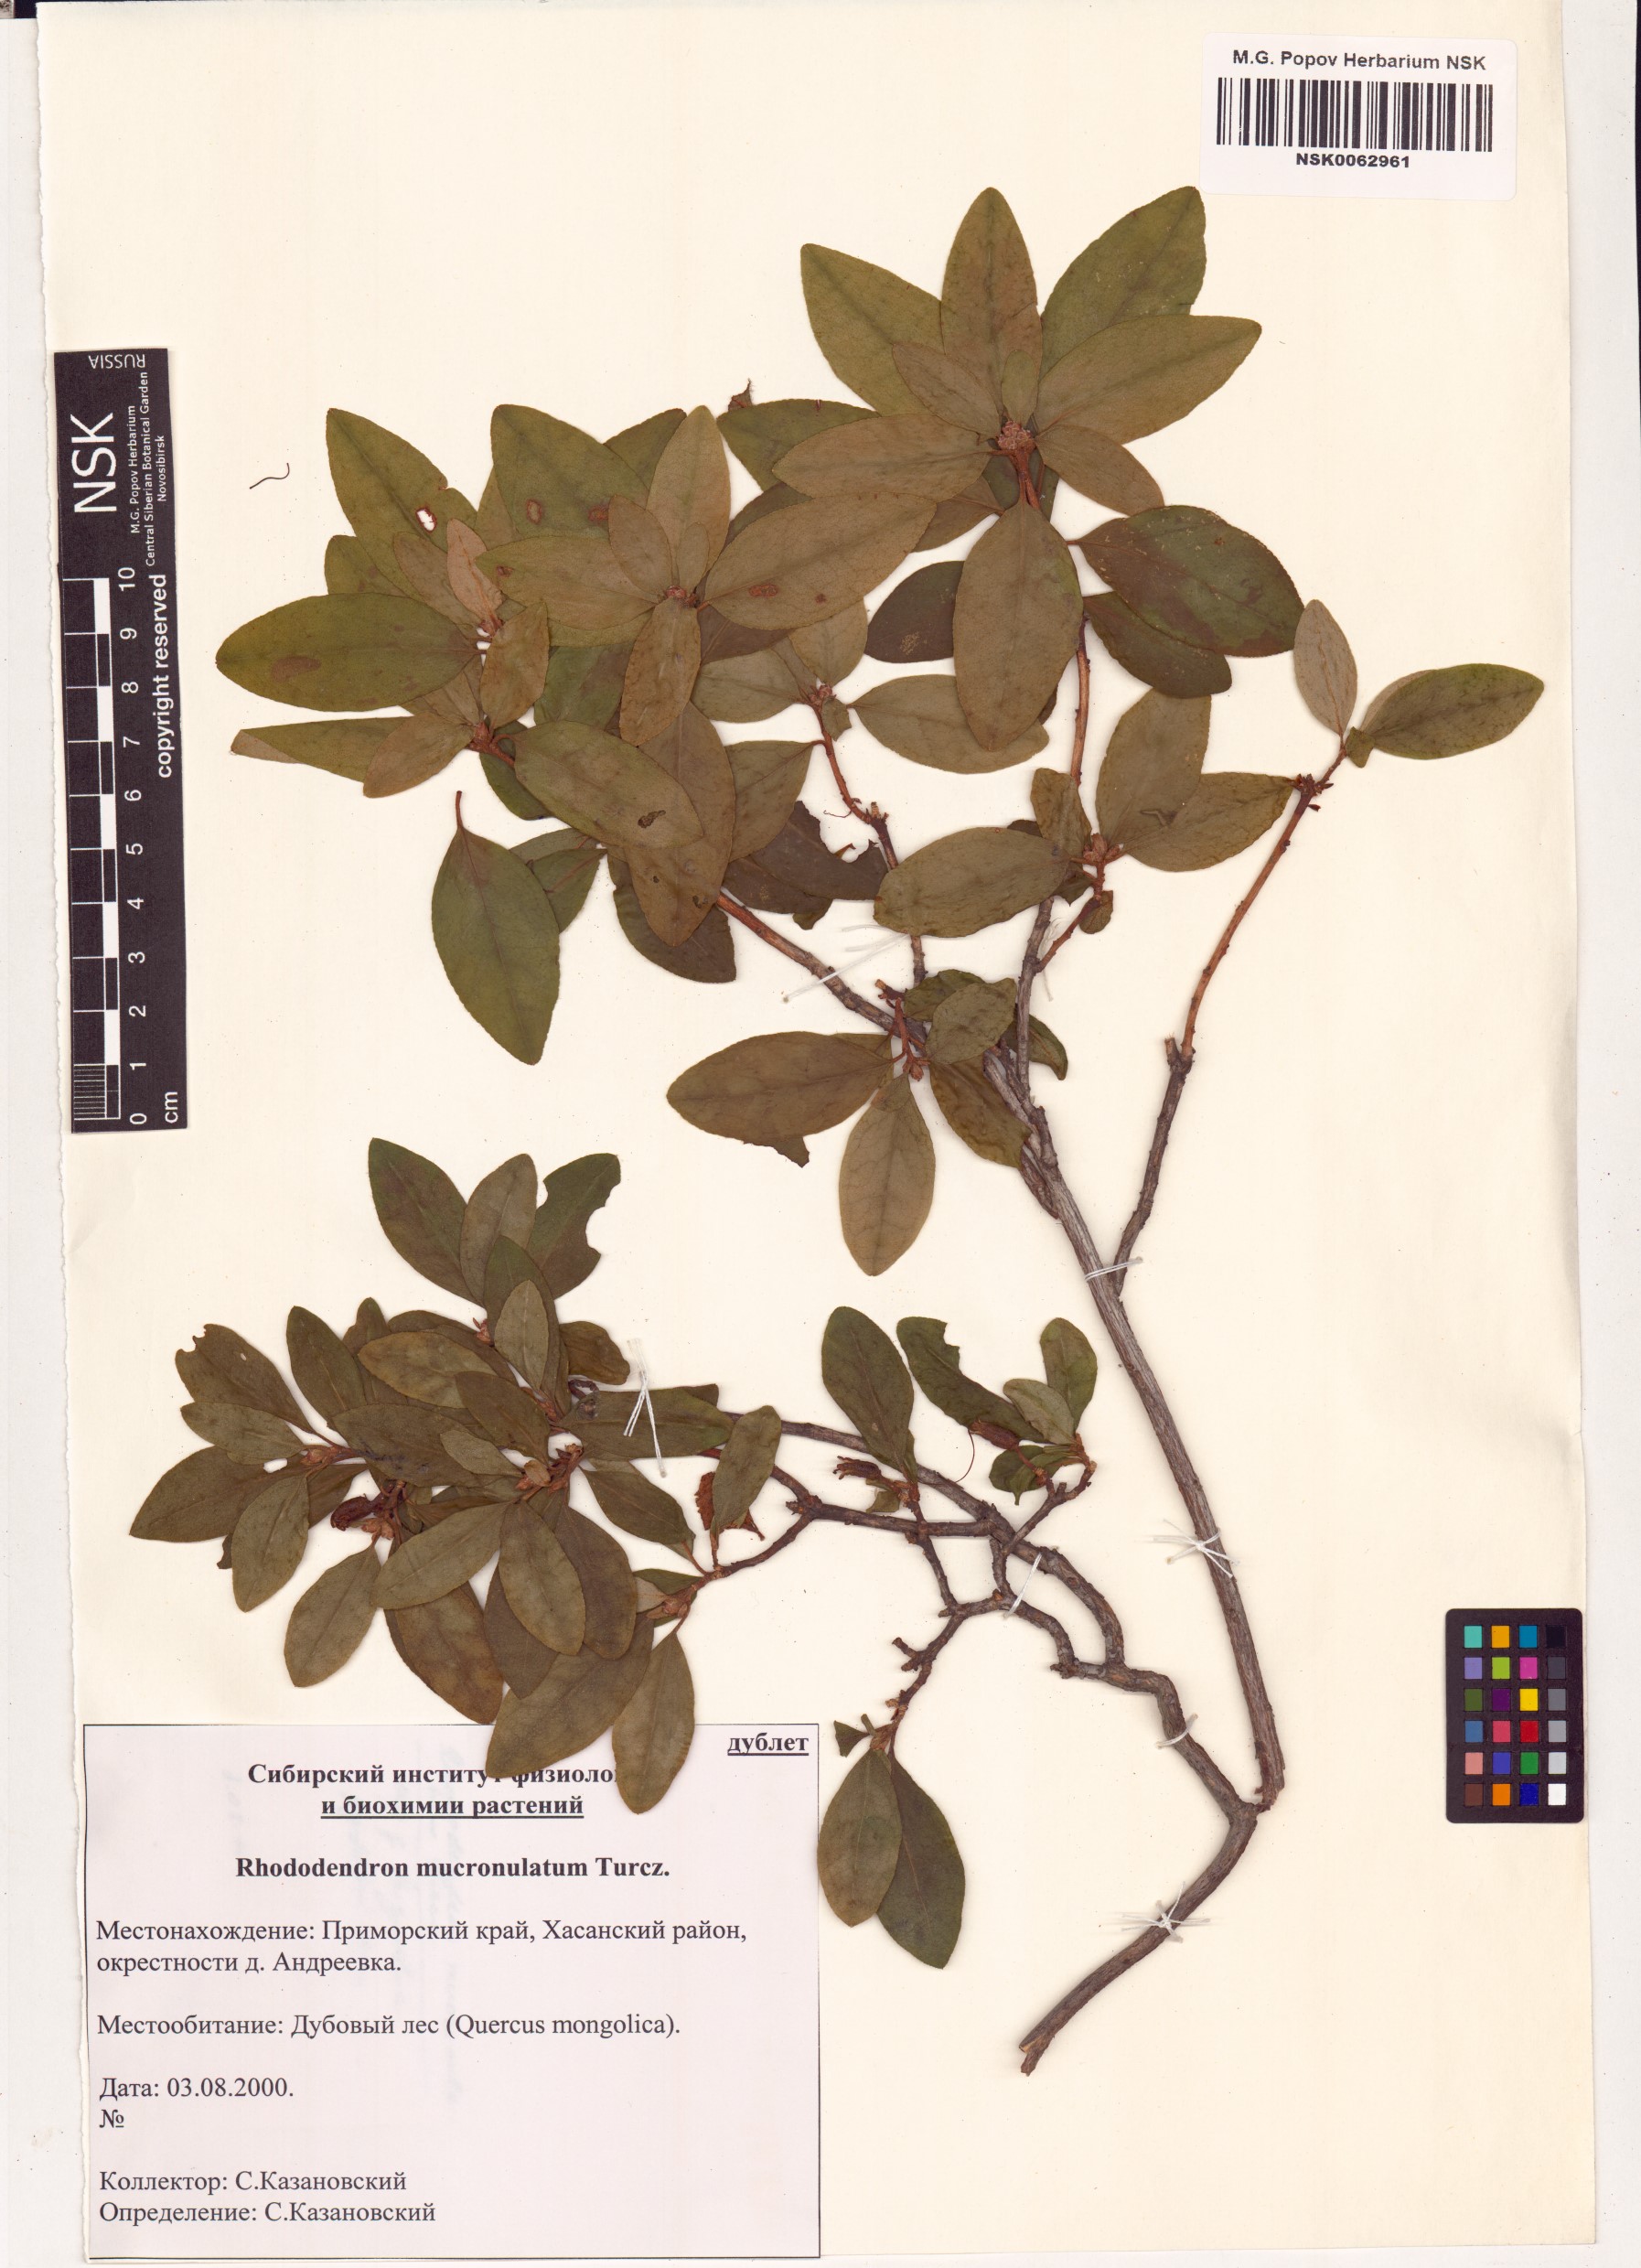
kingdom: Plantae
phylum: Tracheophyta
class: Magnoliopsida
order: Ericales
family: Ericaceae
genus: Rhododendron
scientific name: Rhododendron mucronulatum
